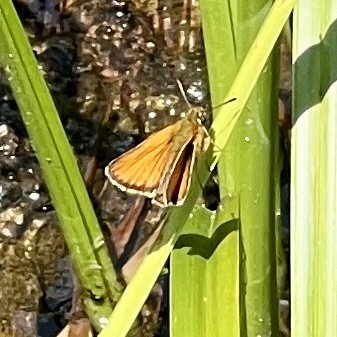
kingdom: Animalia
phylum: Arthropoda
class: Insecta
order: Lepidoptera
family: Hesperiidae
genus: Thymelicus
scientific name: Thymelicus lineola
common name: European Skipper
